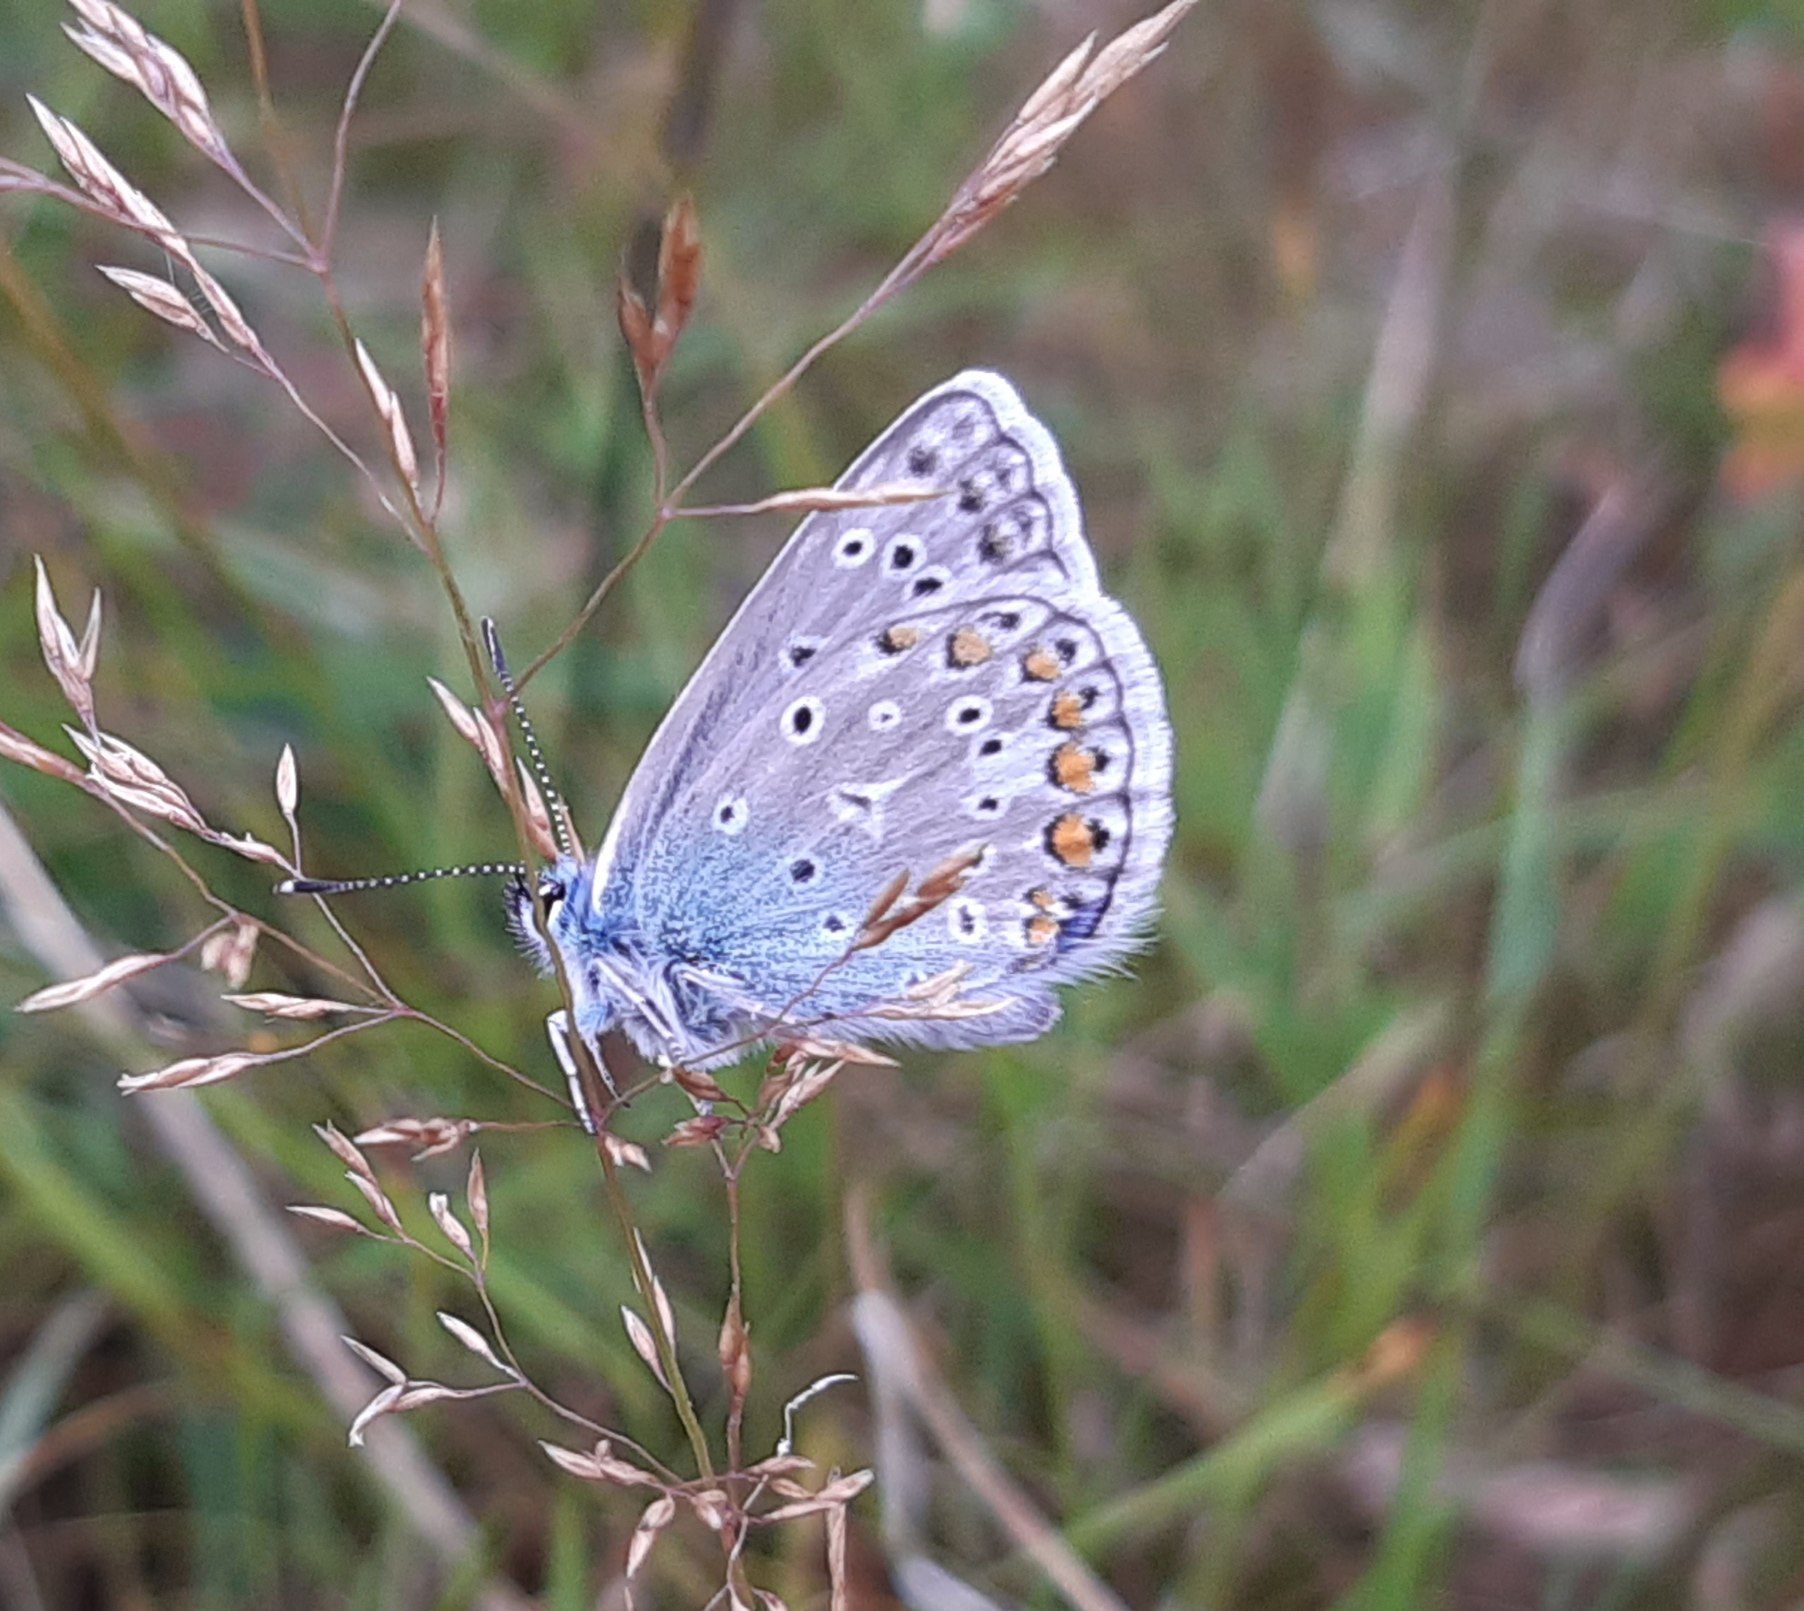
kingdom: Animalia
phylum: Arthropoda
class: Insecta
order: Lepidoptera
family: Lycaenidae
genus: Polyommatus
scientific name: Polyommatus icarus
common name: Almindelig blåfugl
